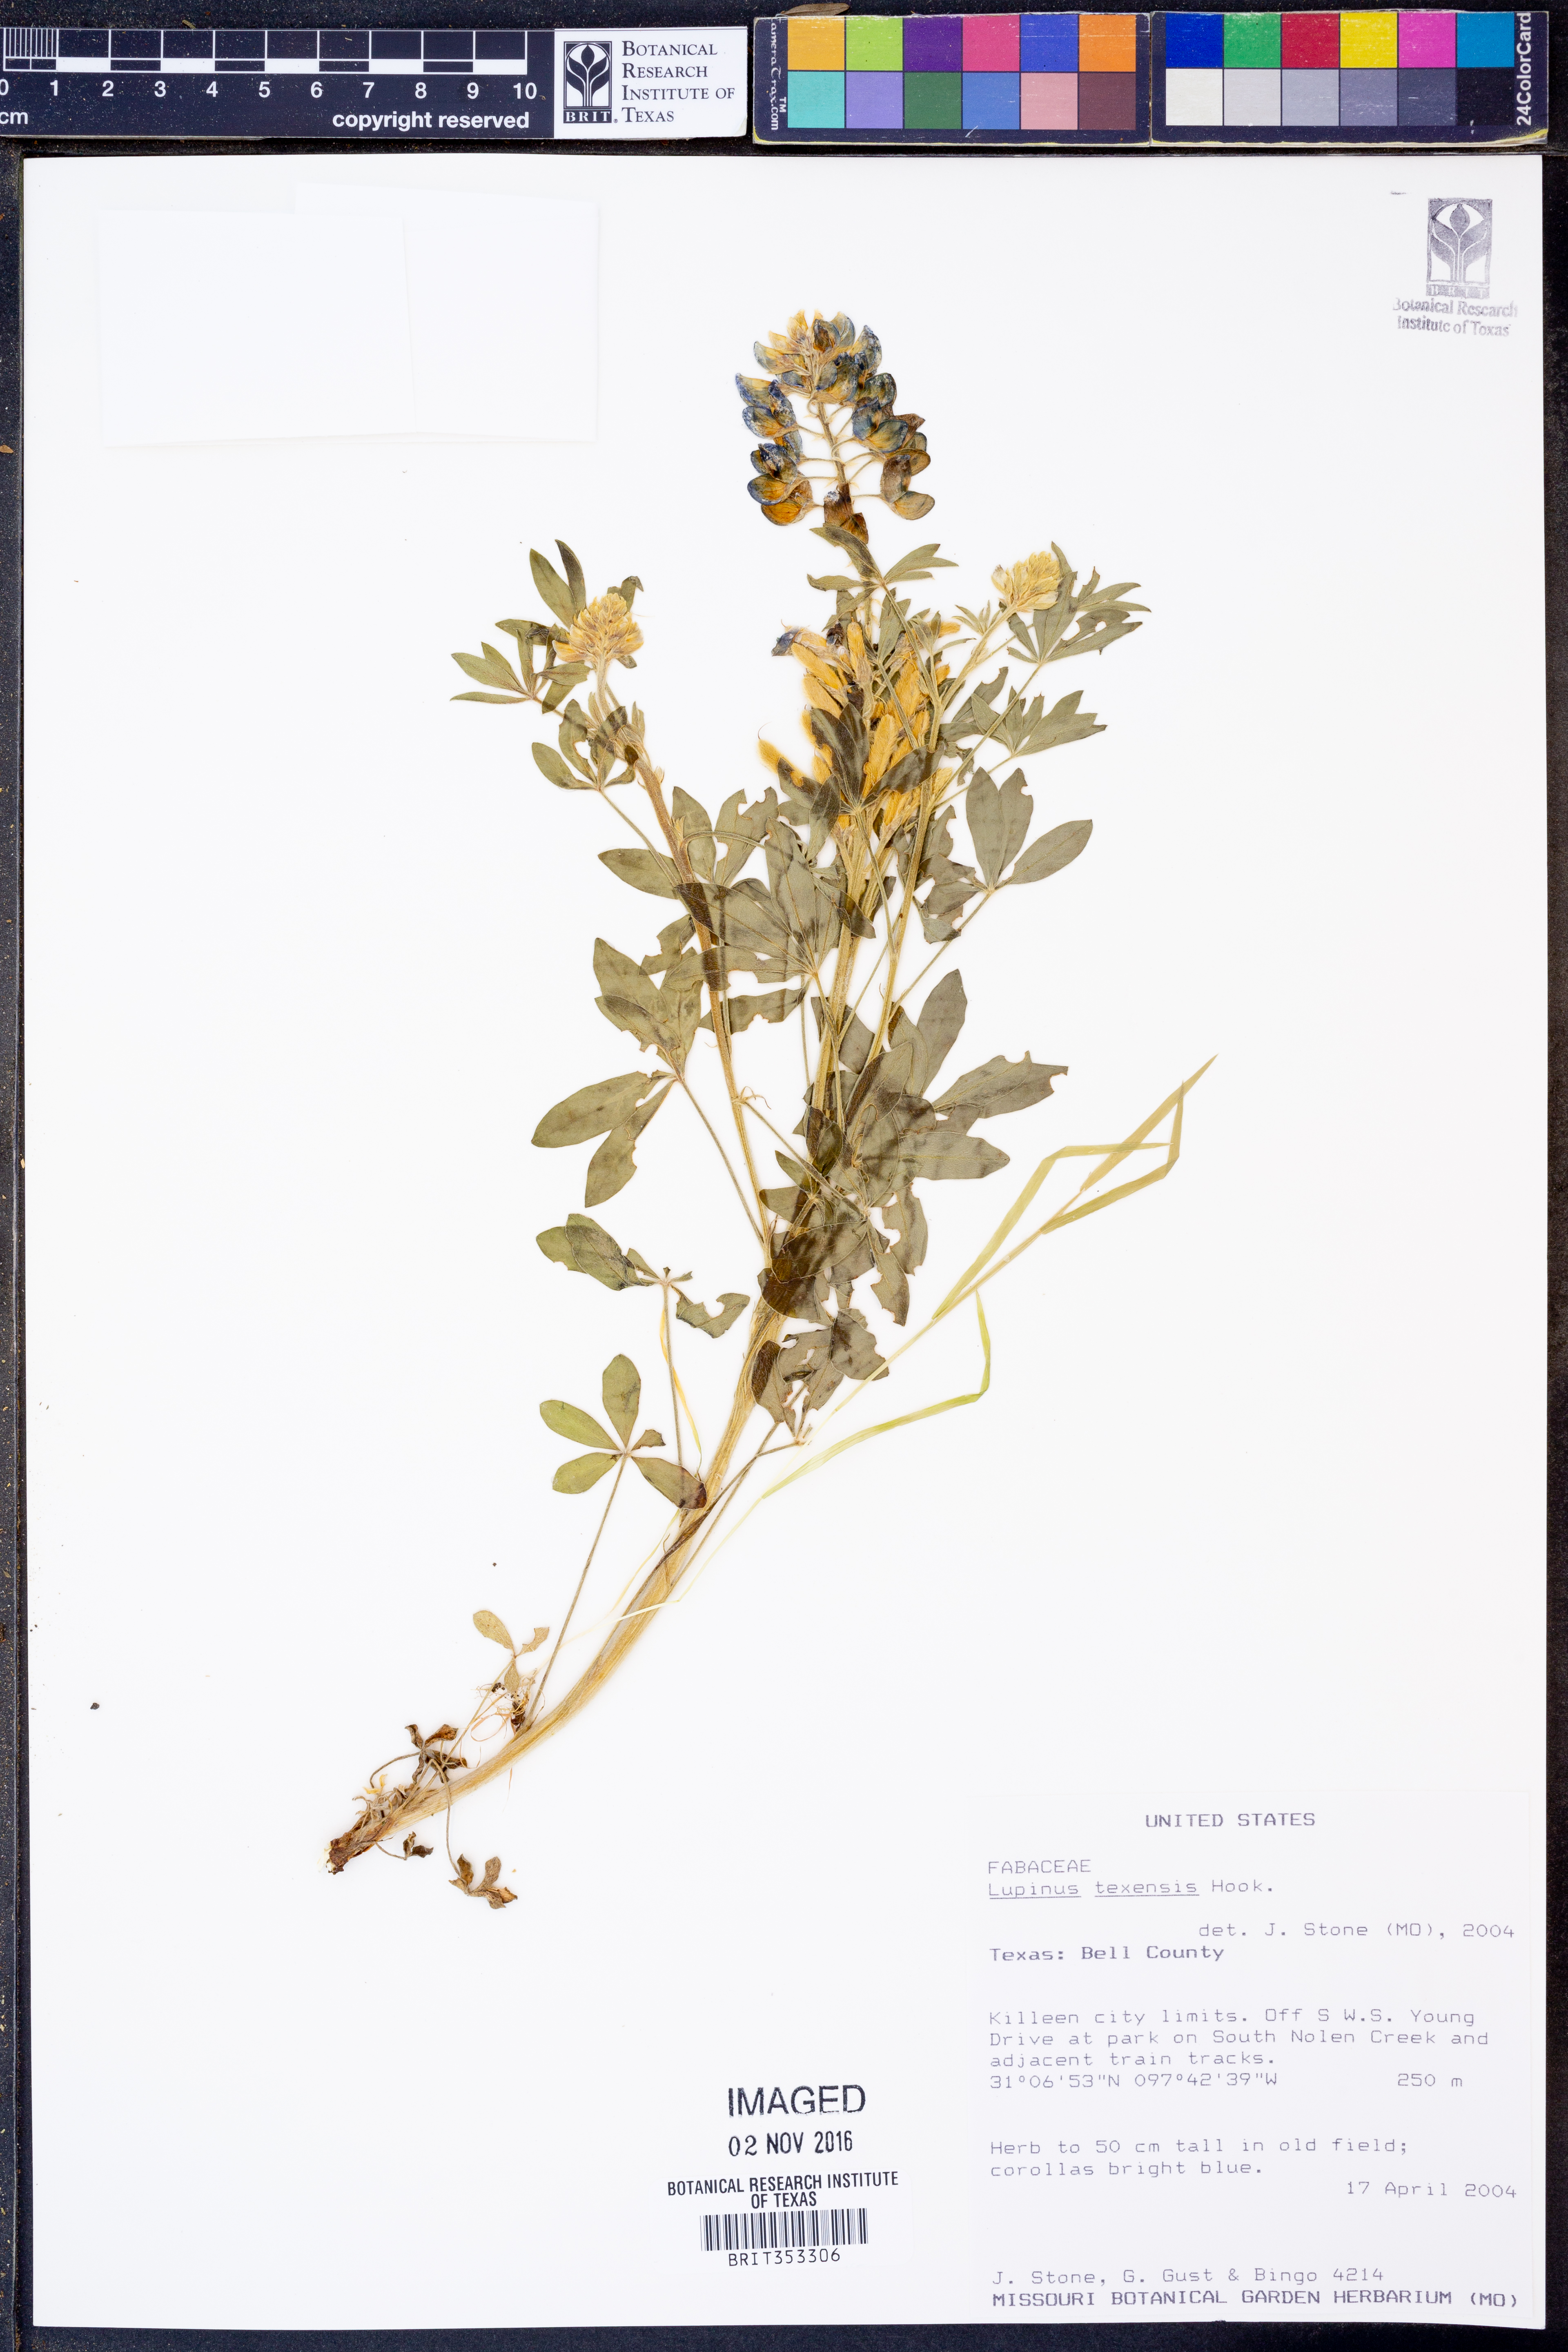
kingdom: Plantae
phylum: Tracheophyta
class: Magnoliopsida
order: Fabales
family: Fabaceae
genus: Lupinus
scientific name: Lupinus texensis
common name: Texas bluebonnet
